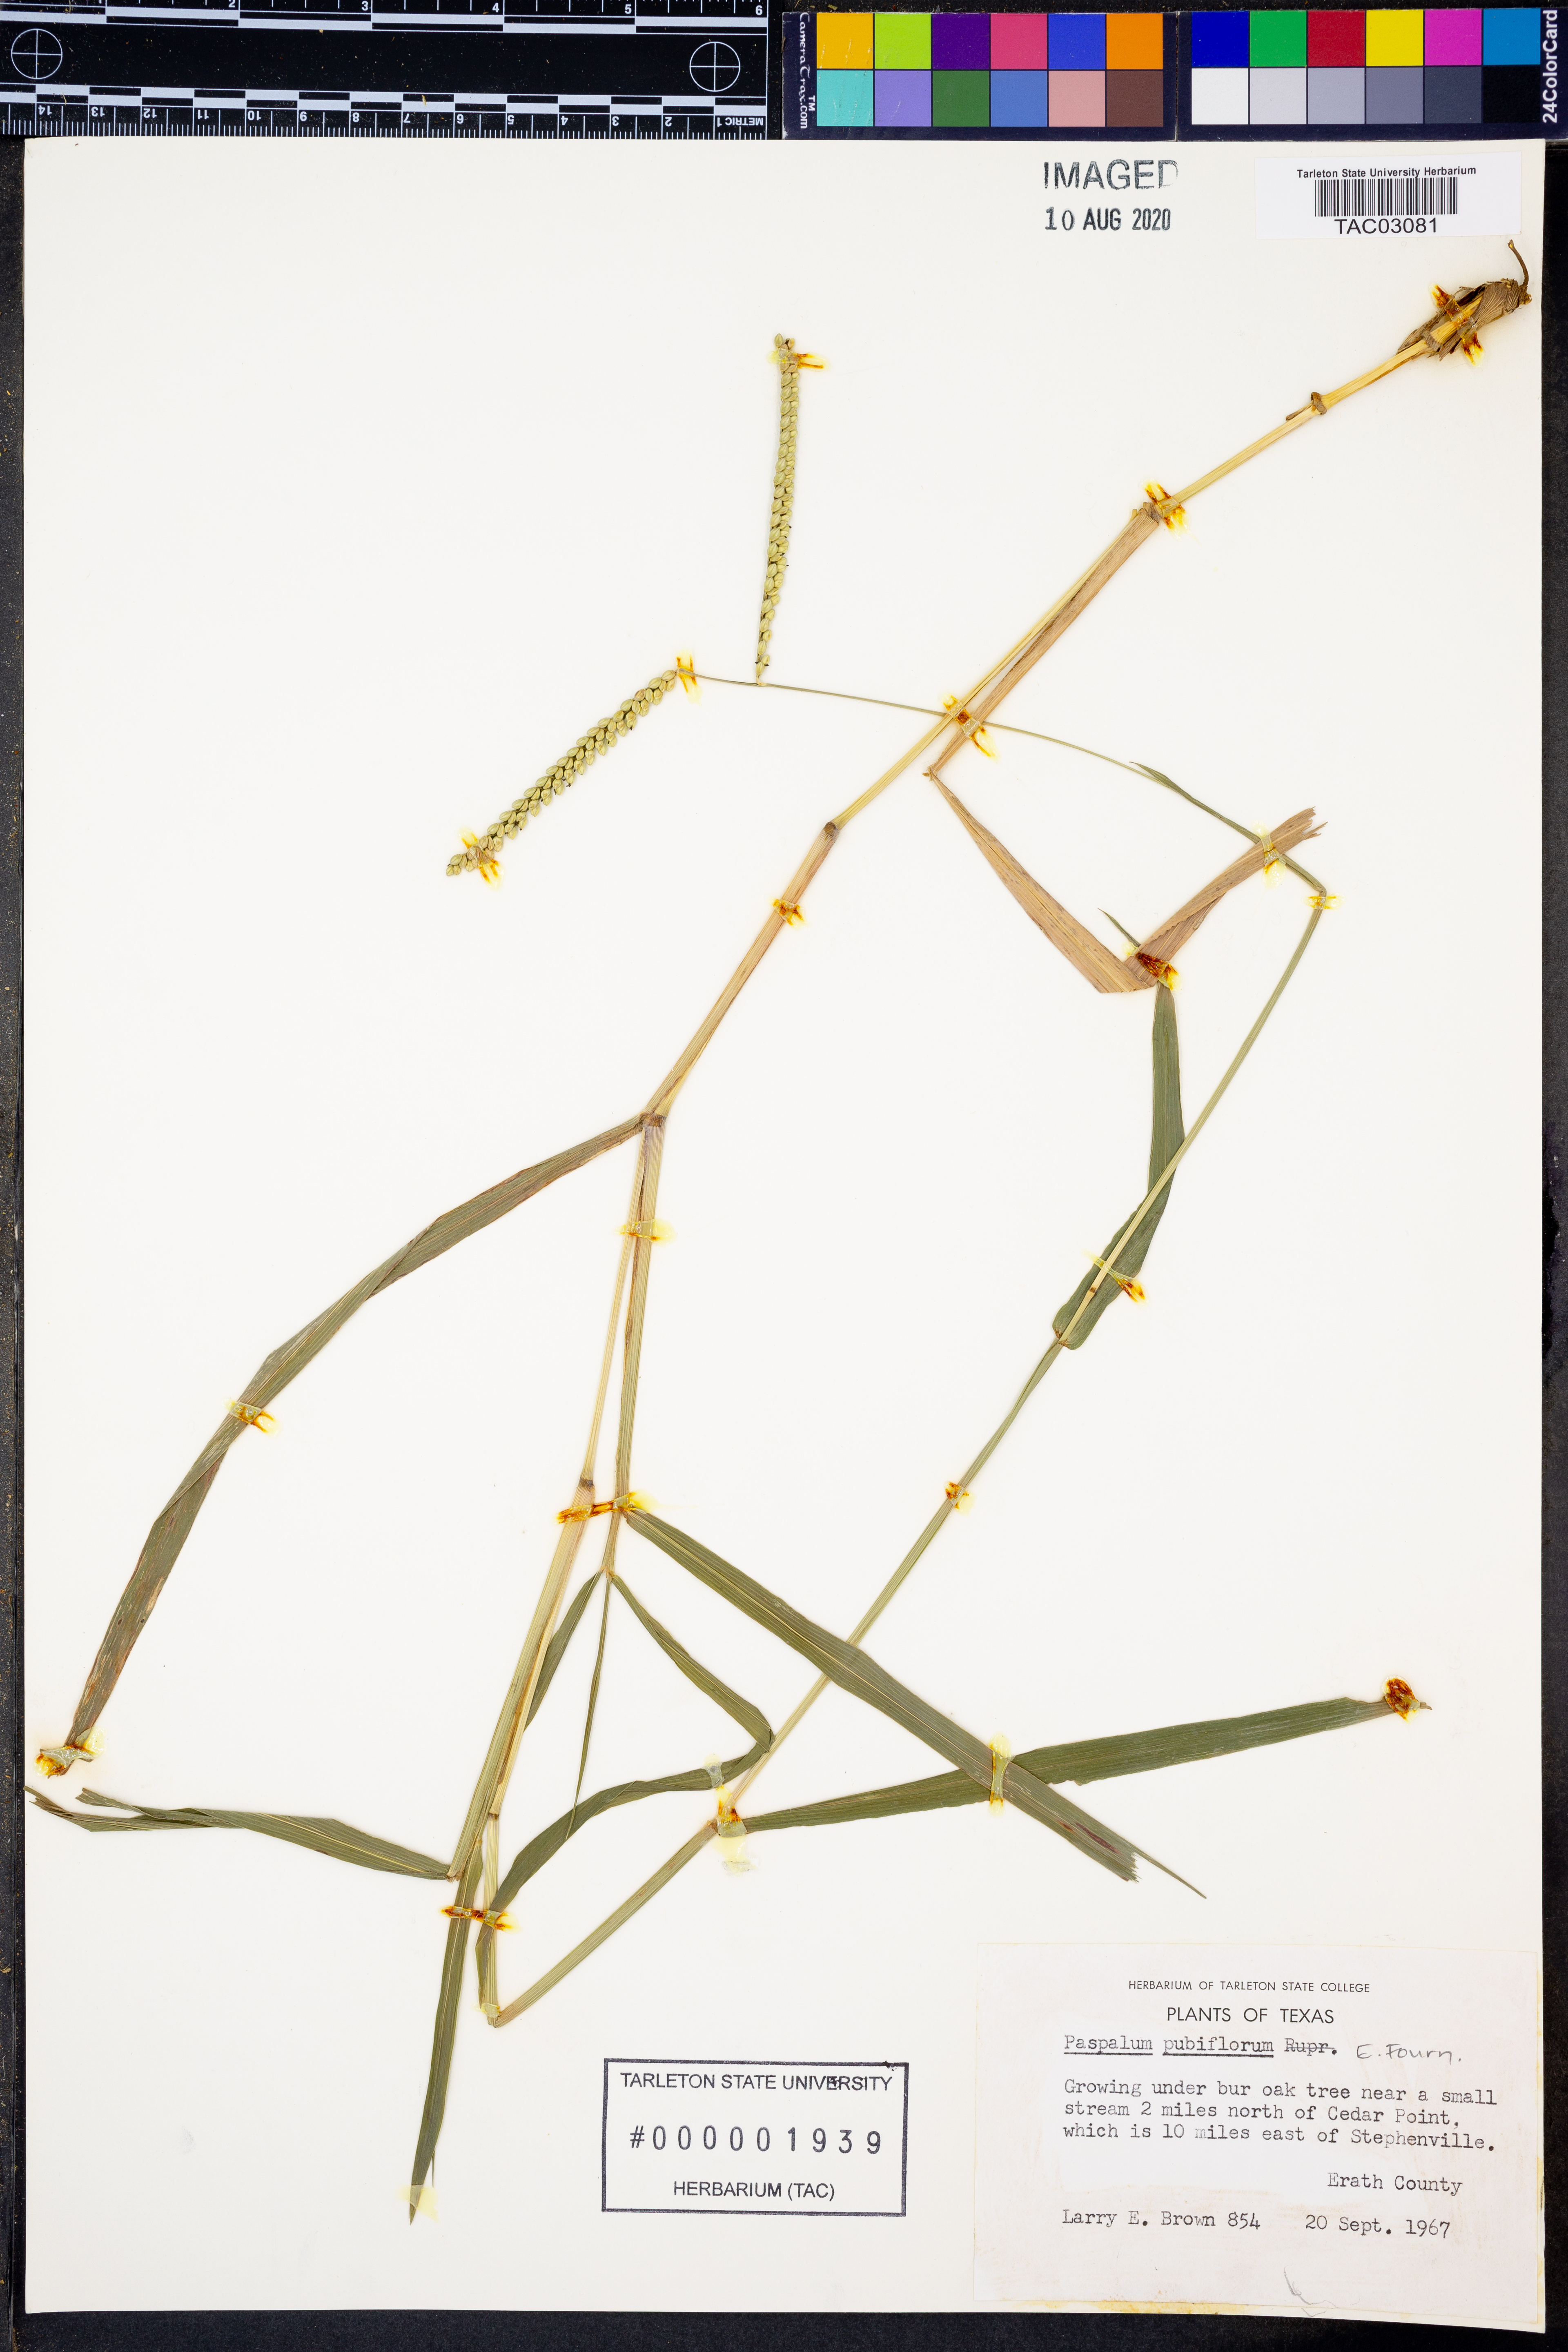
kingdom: Plantae
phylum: Tracheophyta
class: Liliopsida
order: Poales
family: Poaceae
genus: Paspalum
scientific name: Paspalum pubiflorum
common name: Hairy-seed paspalum
